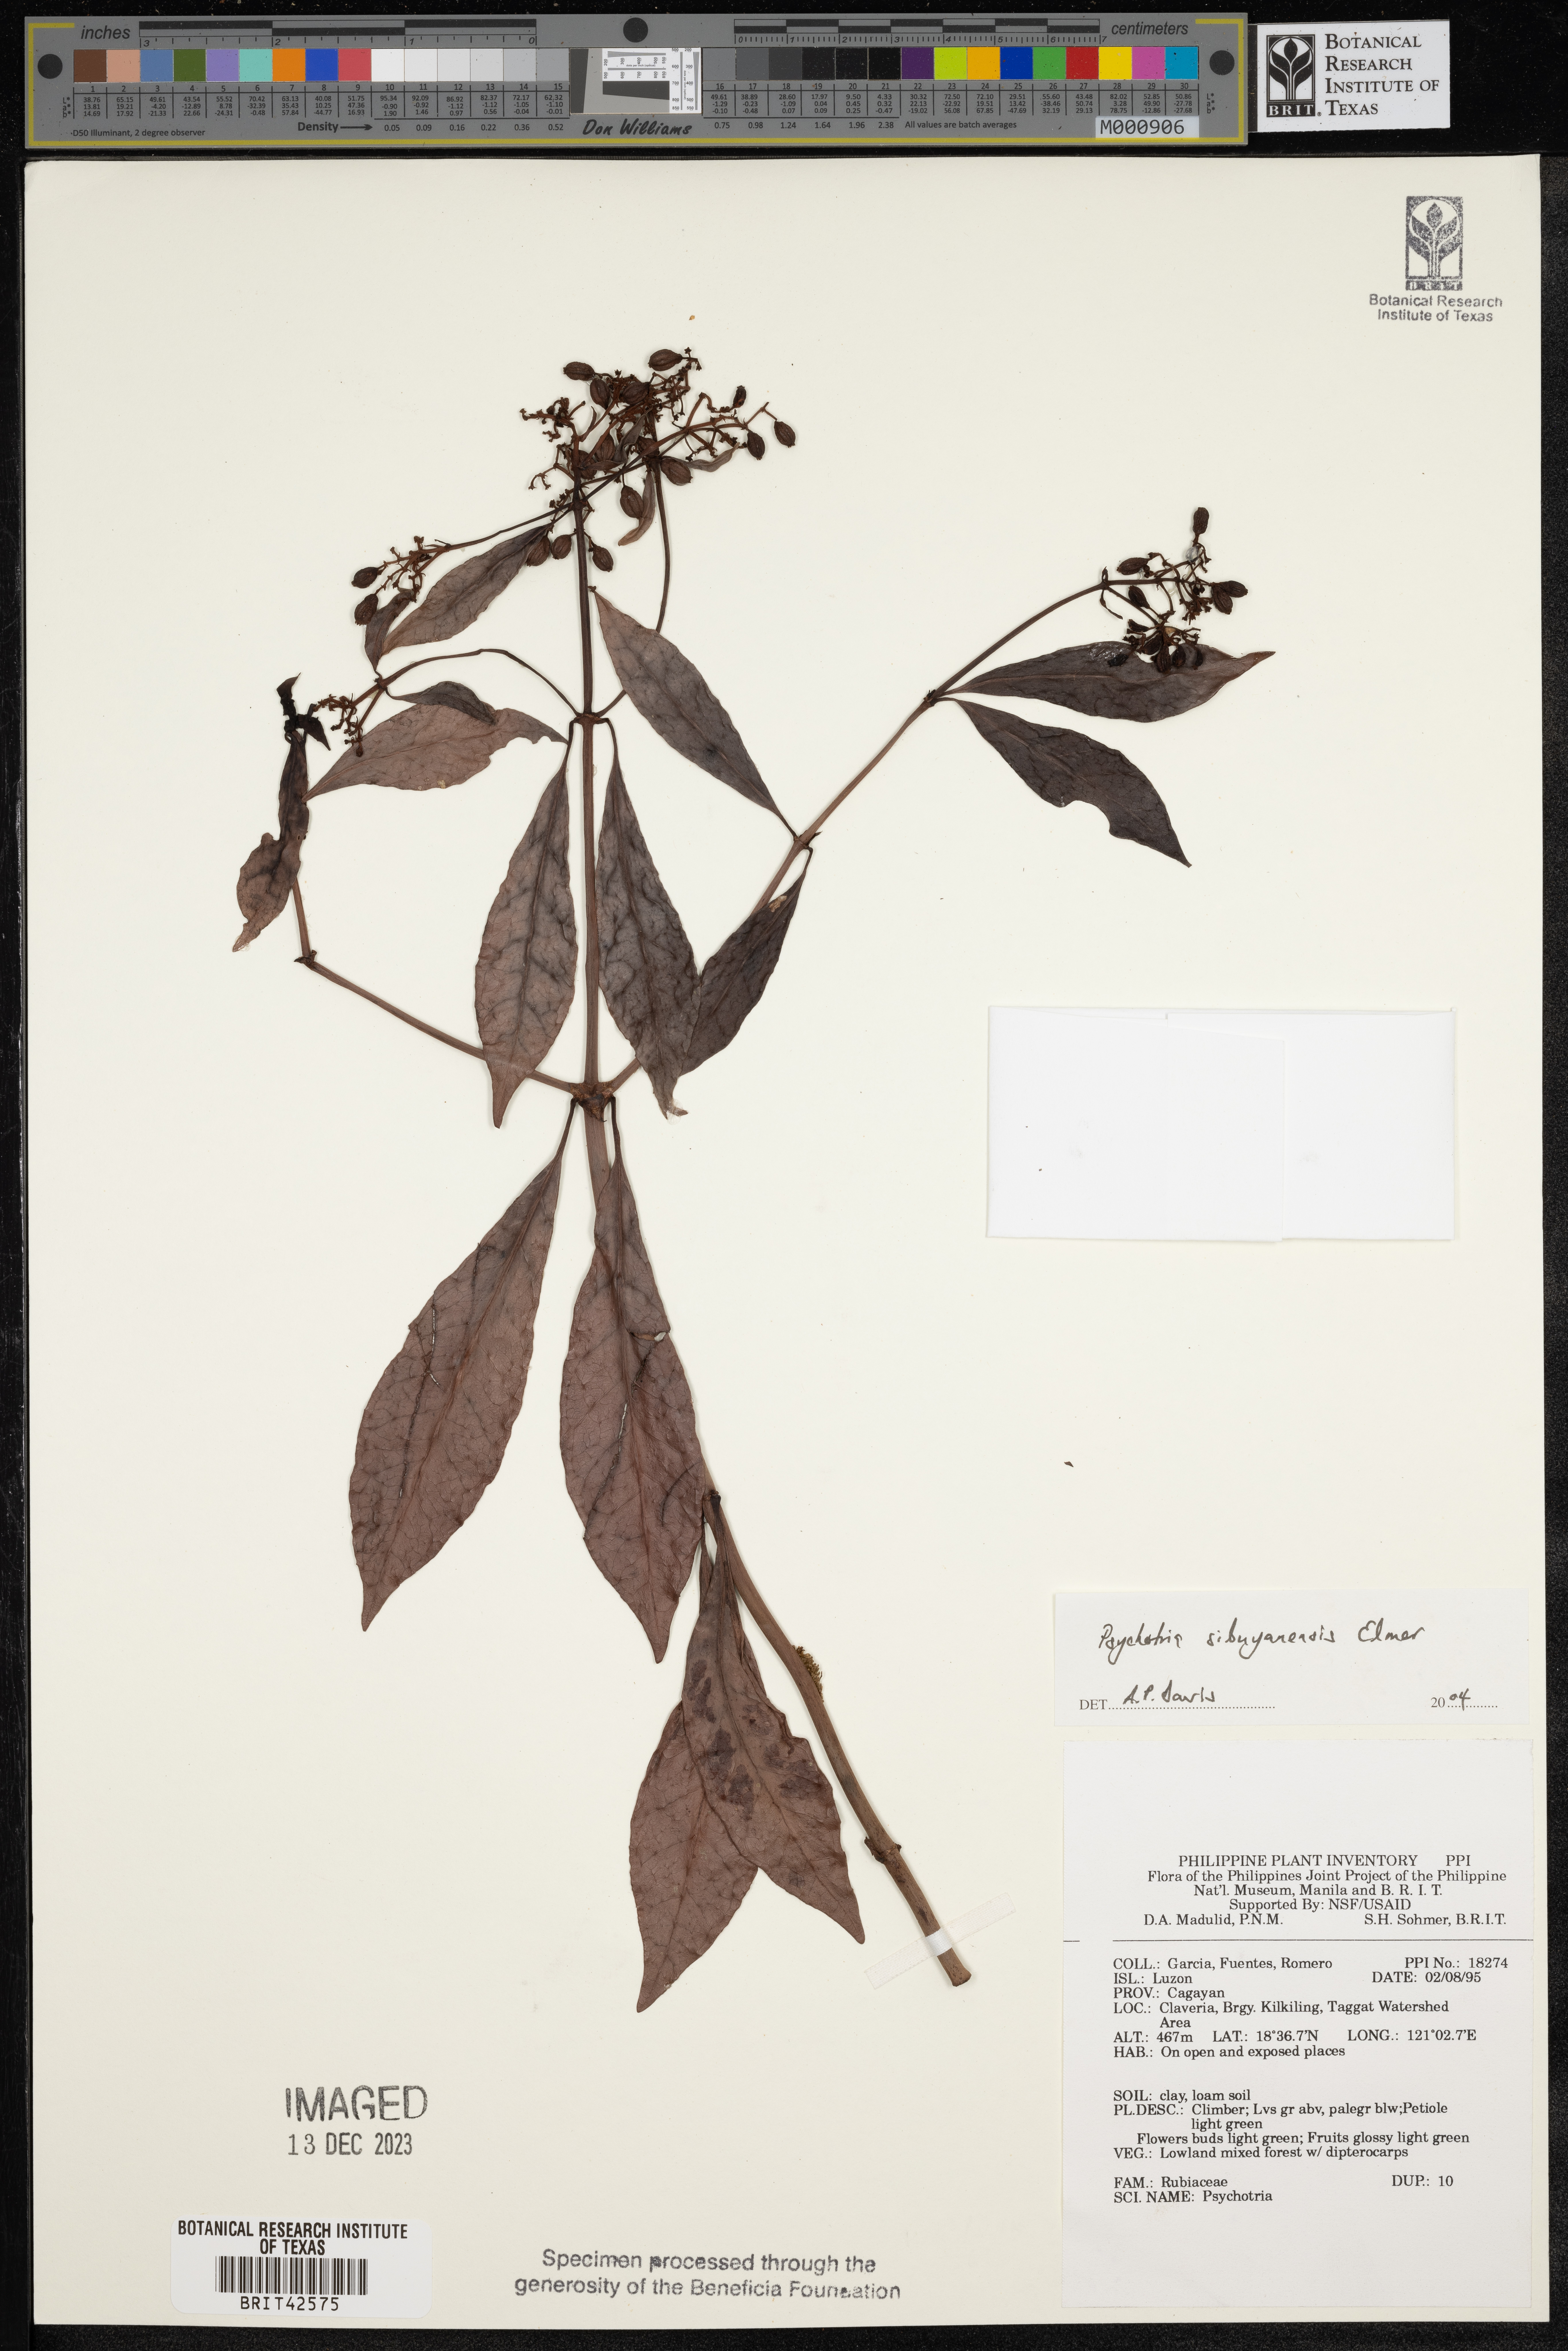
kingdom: Plantae
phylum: Tracheophyta
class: Magnoliopsida
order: Gentianales
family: Rubiaceae
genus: Psychotria
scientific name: Psychotria sibuyanensis
